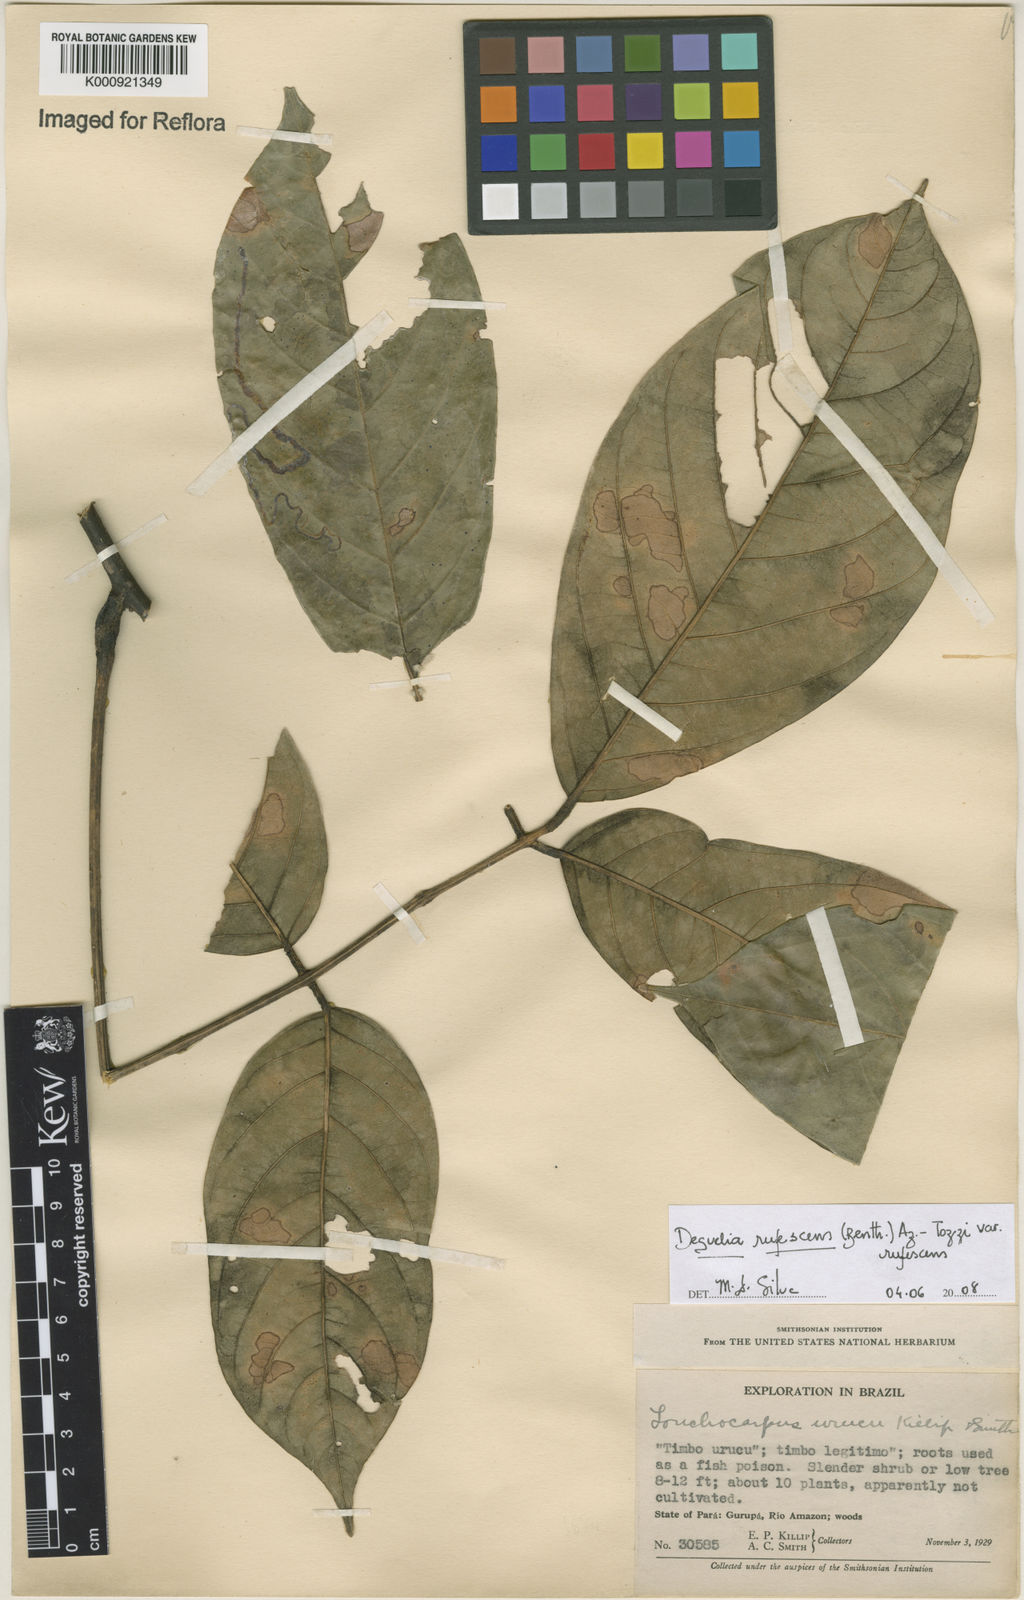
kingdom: Plantae
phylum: Tracheophyta
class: Magnoliopsida
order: Fabales
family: Fabaceae
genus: Deguelia
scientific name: Deguelia
